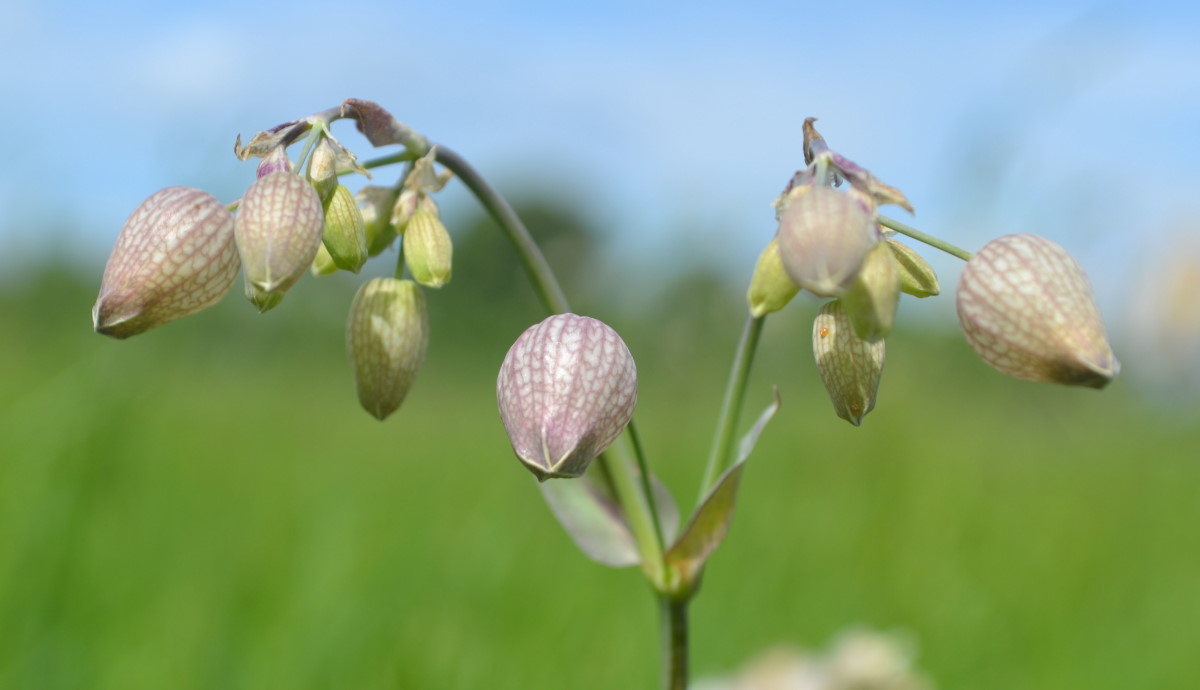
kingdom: Plantae
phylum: Tracheophyta
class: Magnoliopsida
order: Caryophyllales
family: Caryophyllaceae
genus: Silene
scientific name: Silene behen
